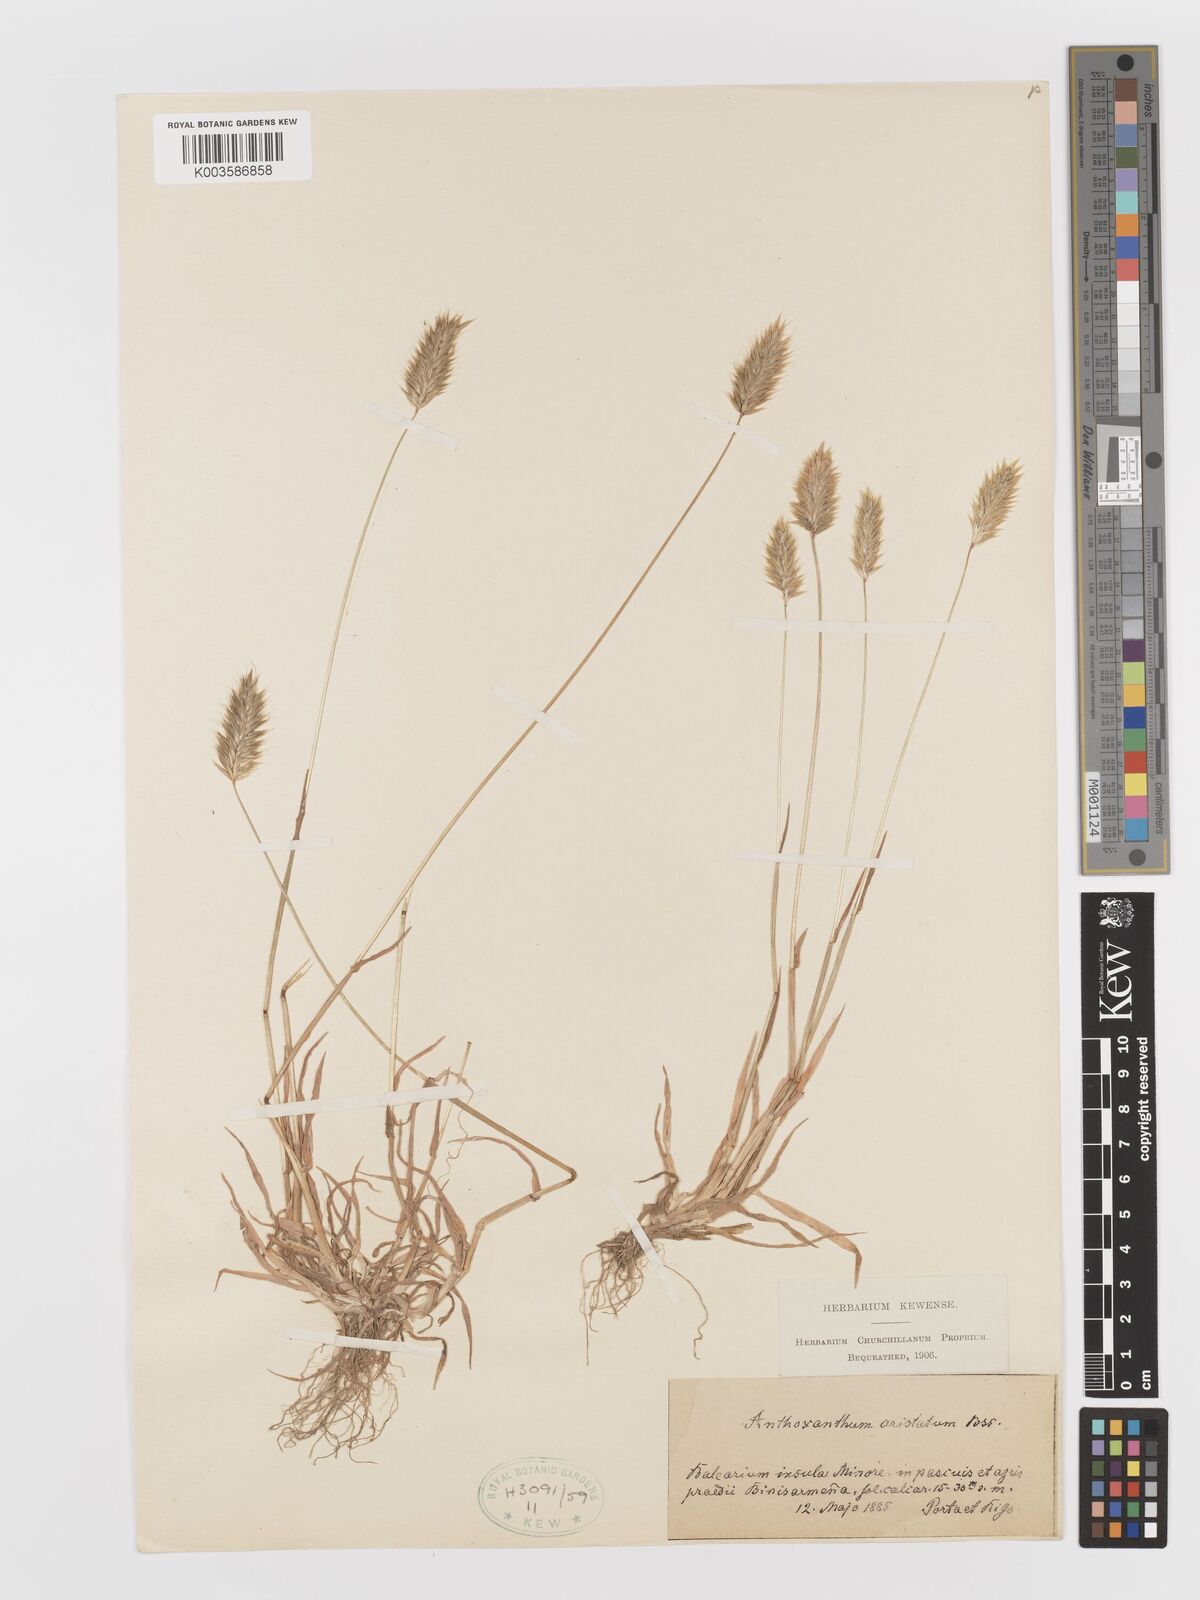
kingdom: Plantae
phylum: Tracheophyta
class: Liliopsida
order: Poales
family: Poaceae
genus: Anthoxanthum
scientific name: Anthoxanthum
